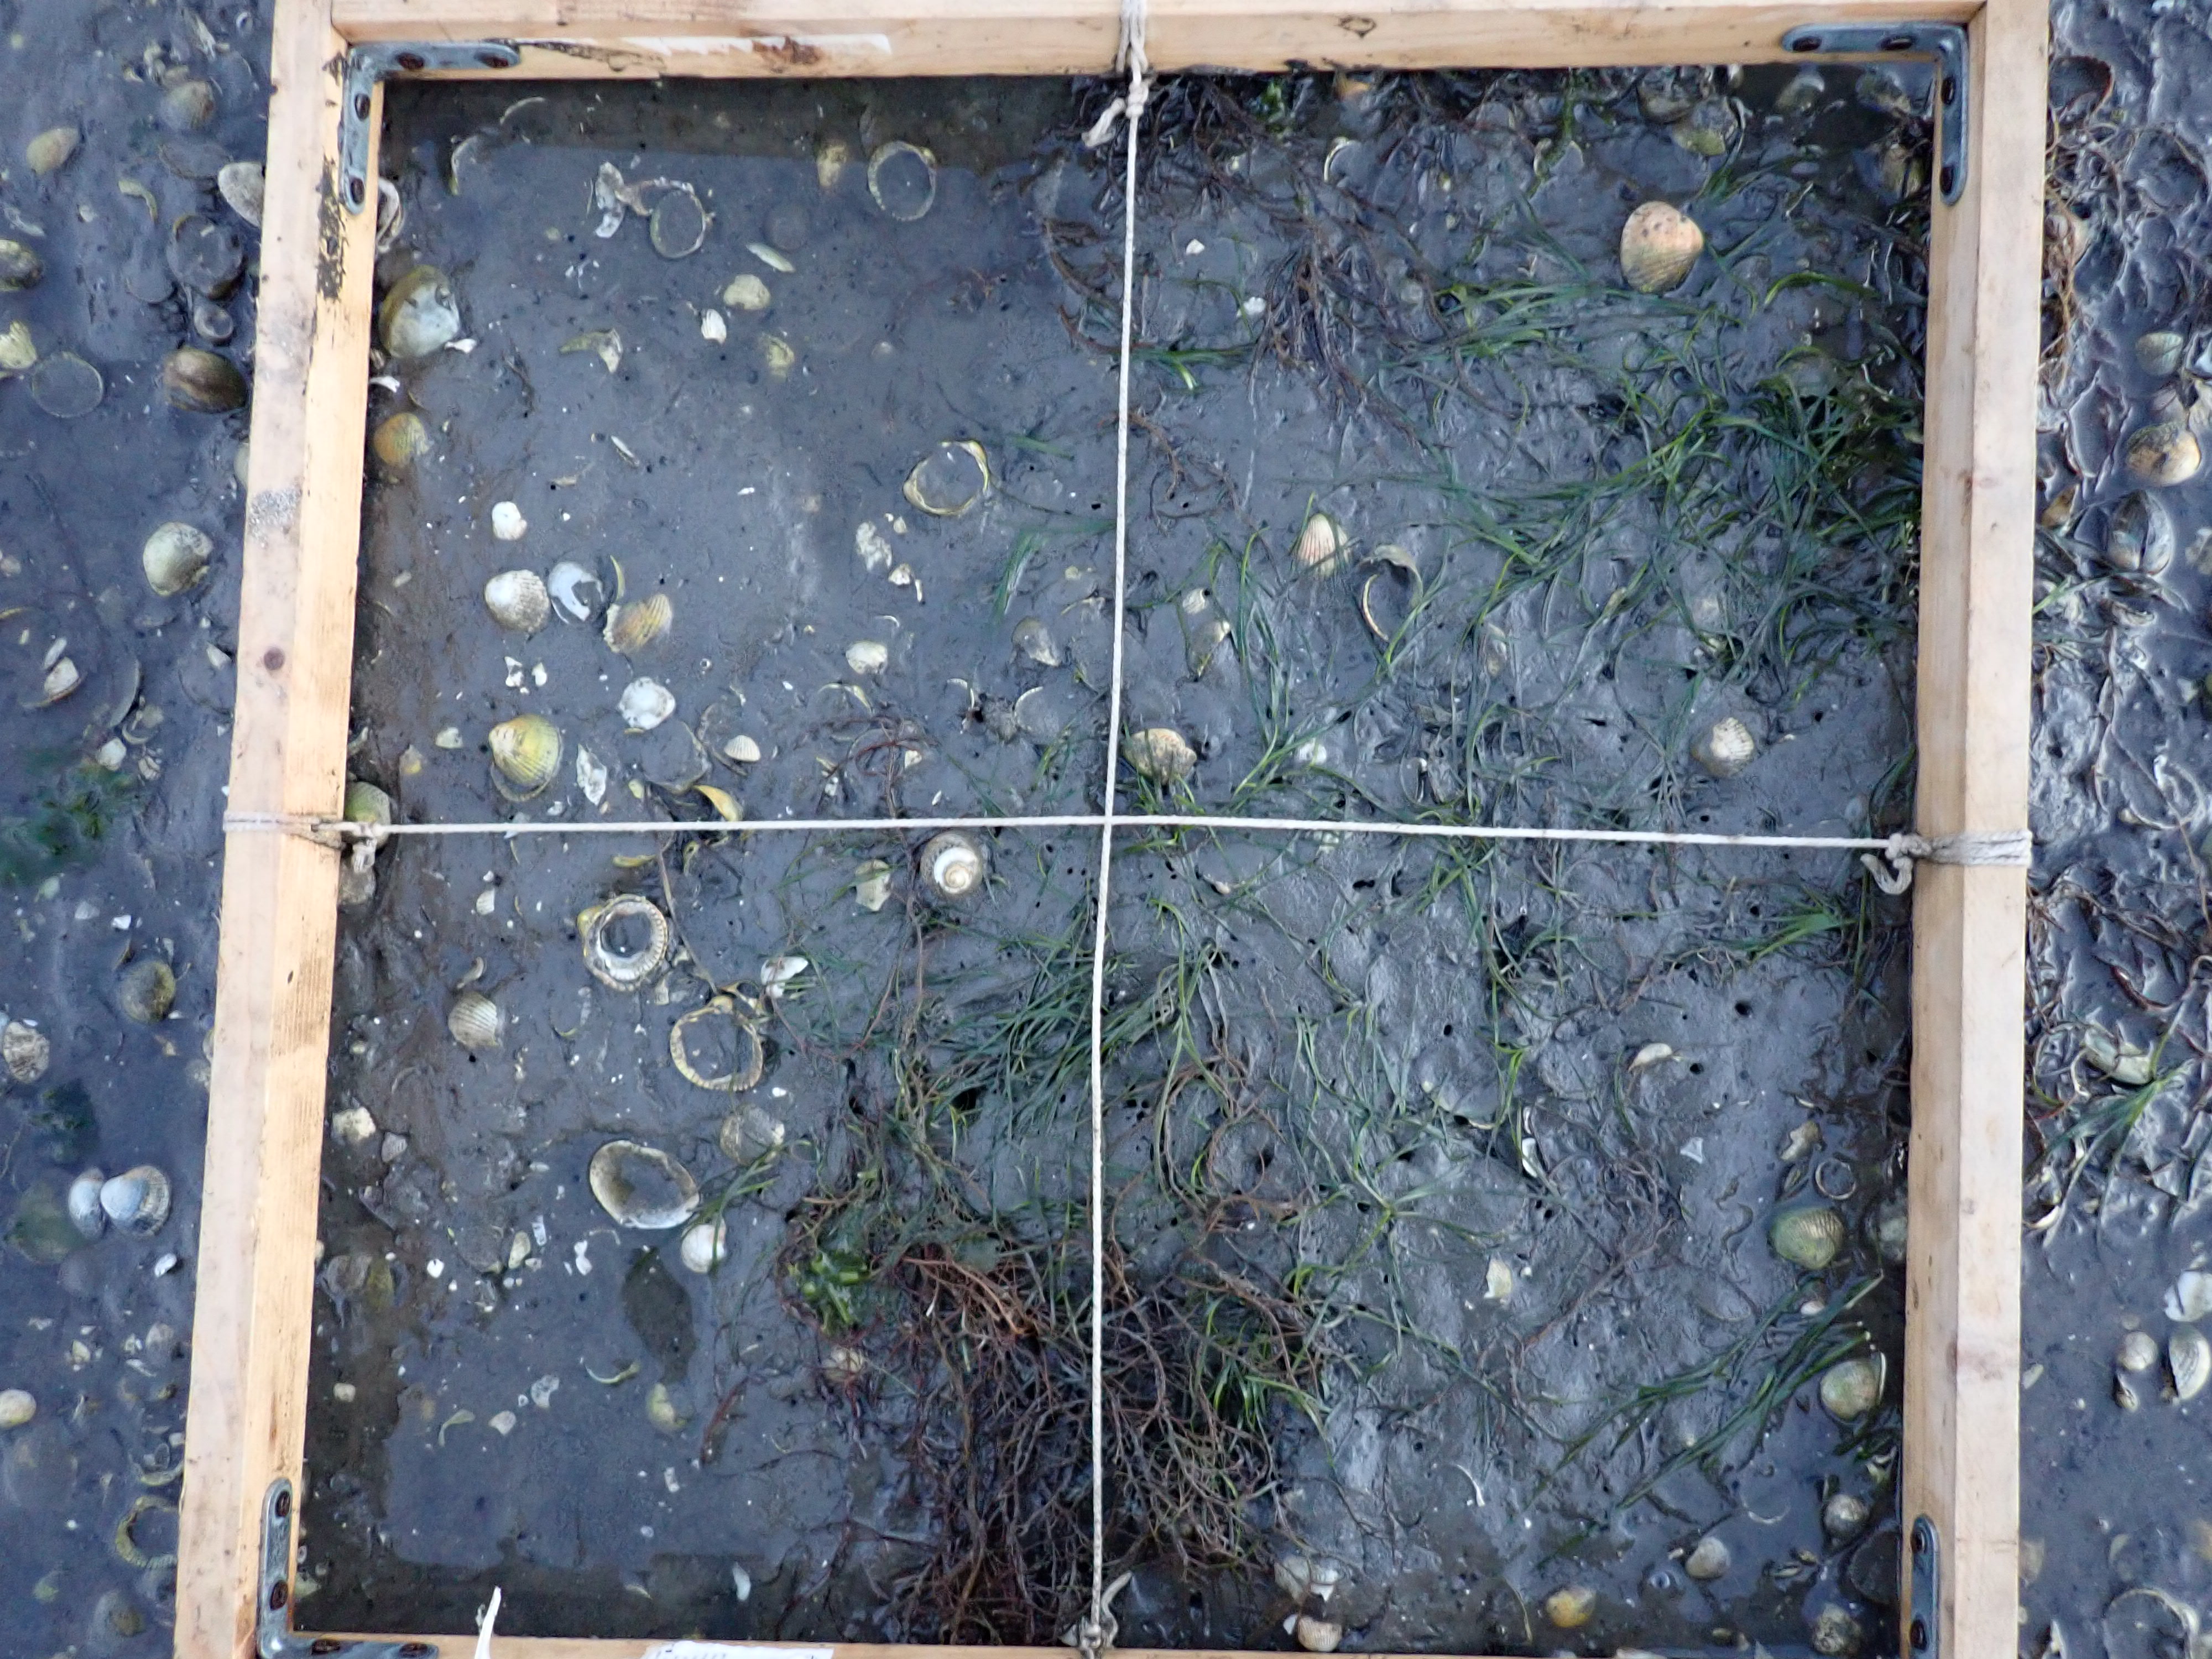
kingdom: Plantae
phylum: Rhodophyta
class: Florideophyceae
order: Gracilariales
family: Gracilariaceae
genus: Gracilaria
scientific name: Gracilaria vermiculophylla
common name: Algae
